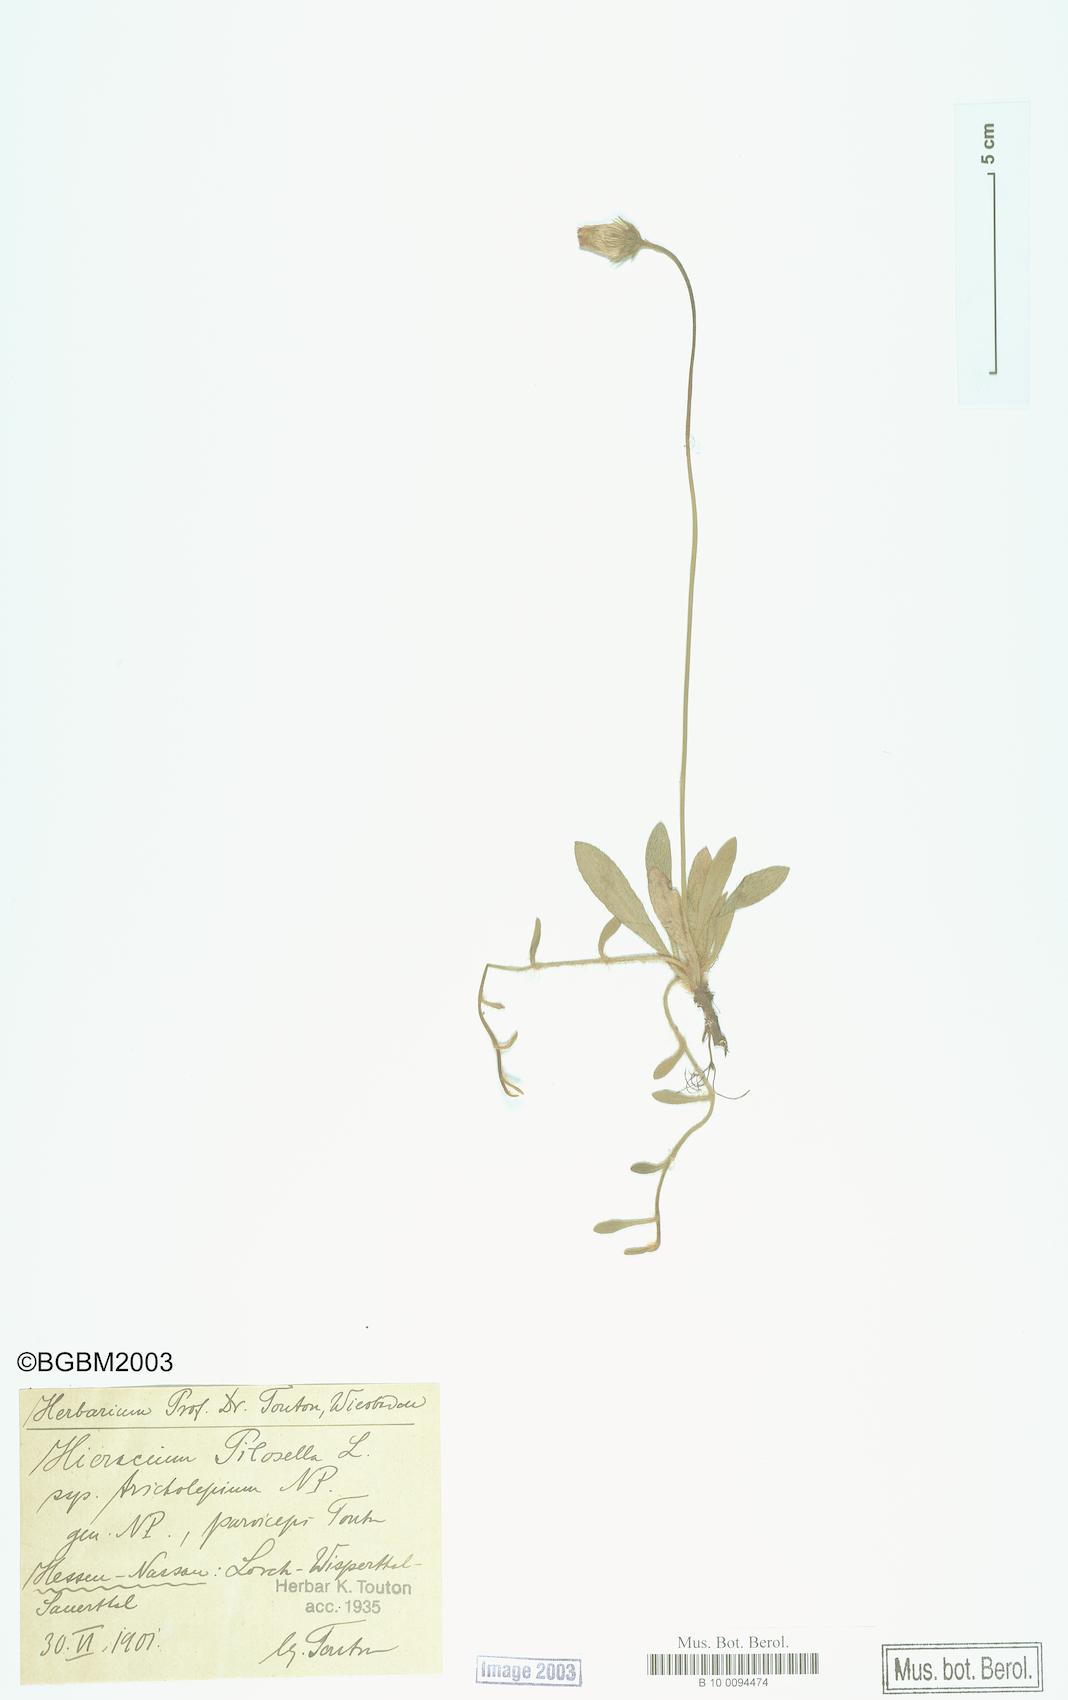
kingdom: Plantae
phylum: Tracheophyta
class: Magnoliopsida
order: Asterales
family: Asteraceae
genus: Pilosella
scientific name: Pilosella officinarum
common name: Mouse-ear hawkweed
